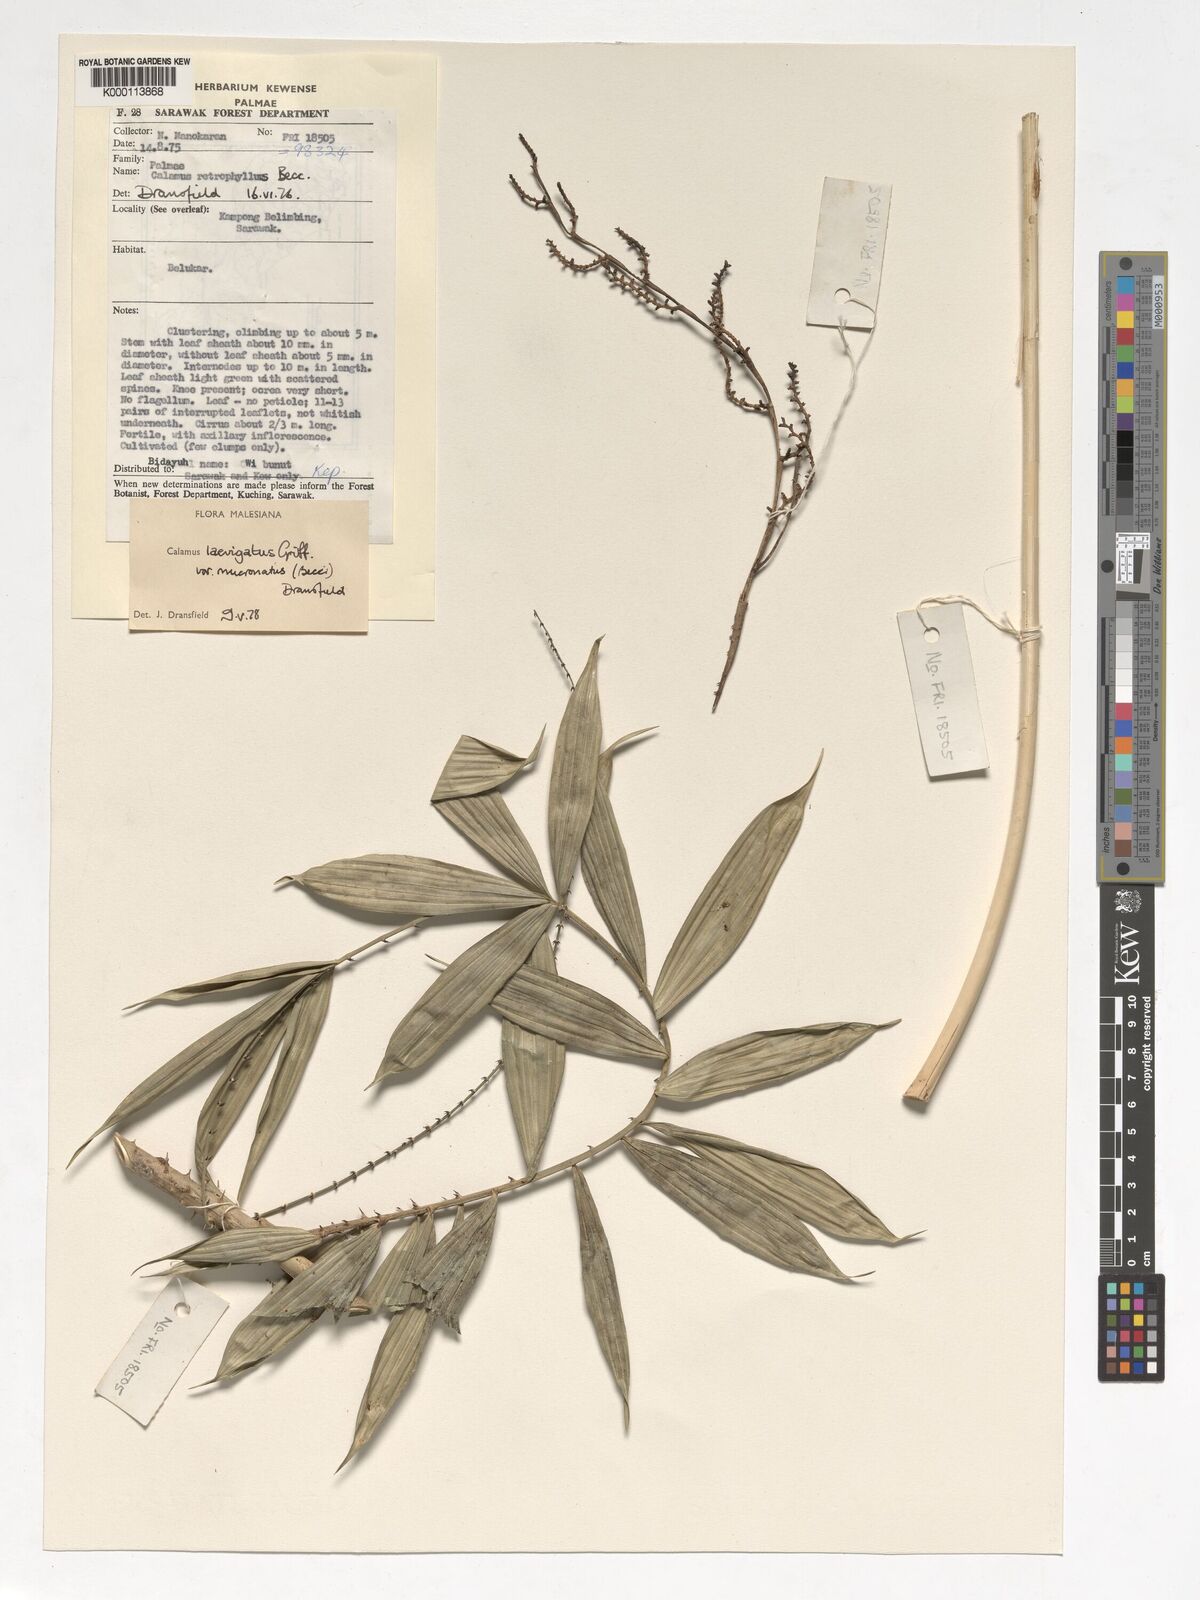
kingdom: Plantae
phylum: Tracheophyta
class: Liliopsida
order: Arecales
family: Arecaceae
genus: Calamus
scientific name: Calamus plicatus
